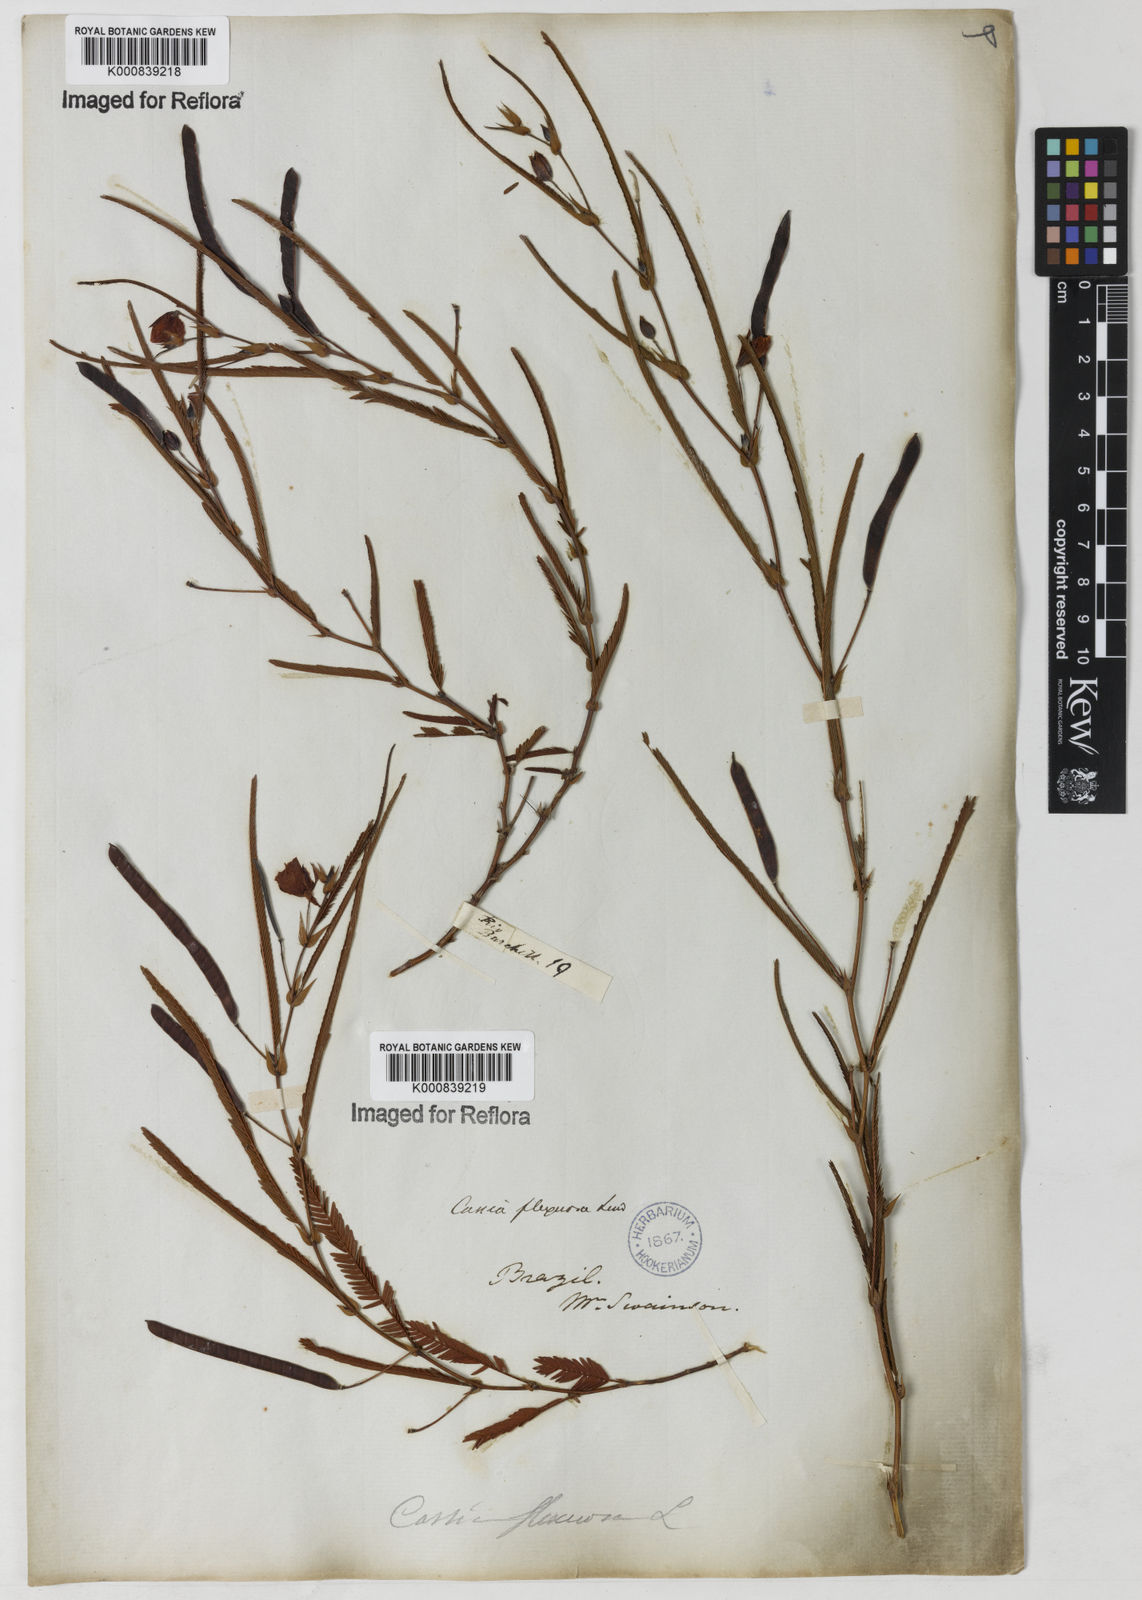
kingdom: Plantae
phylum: Tracheophyta
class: Magnoliopsida
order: Fabales
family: Fabaceae
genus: Chamaecrista
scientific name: Chamaecrista flexuosa
